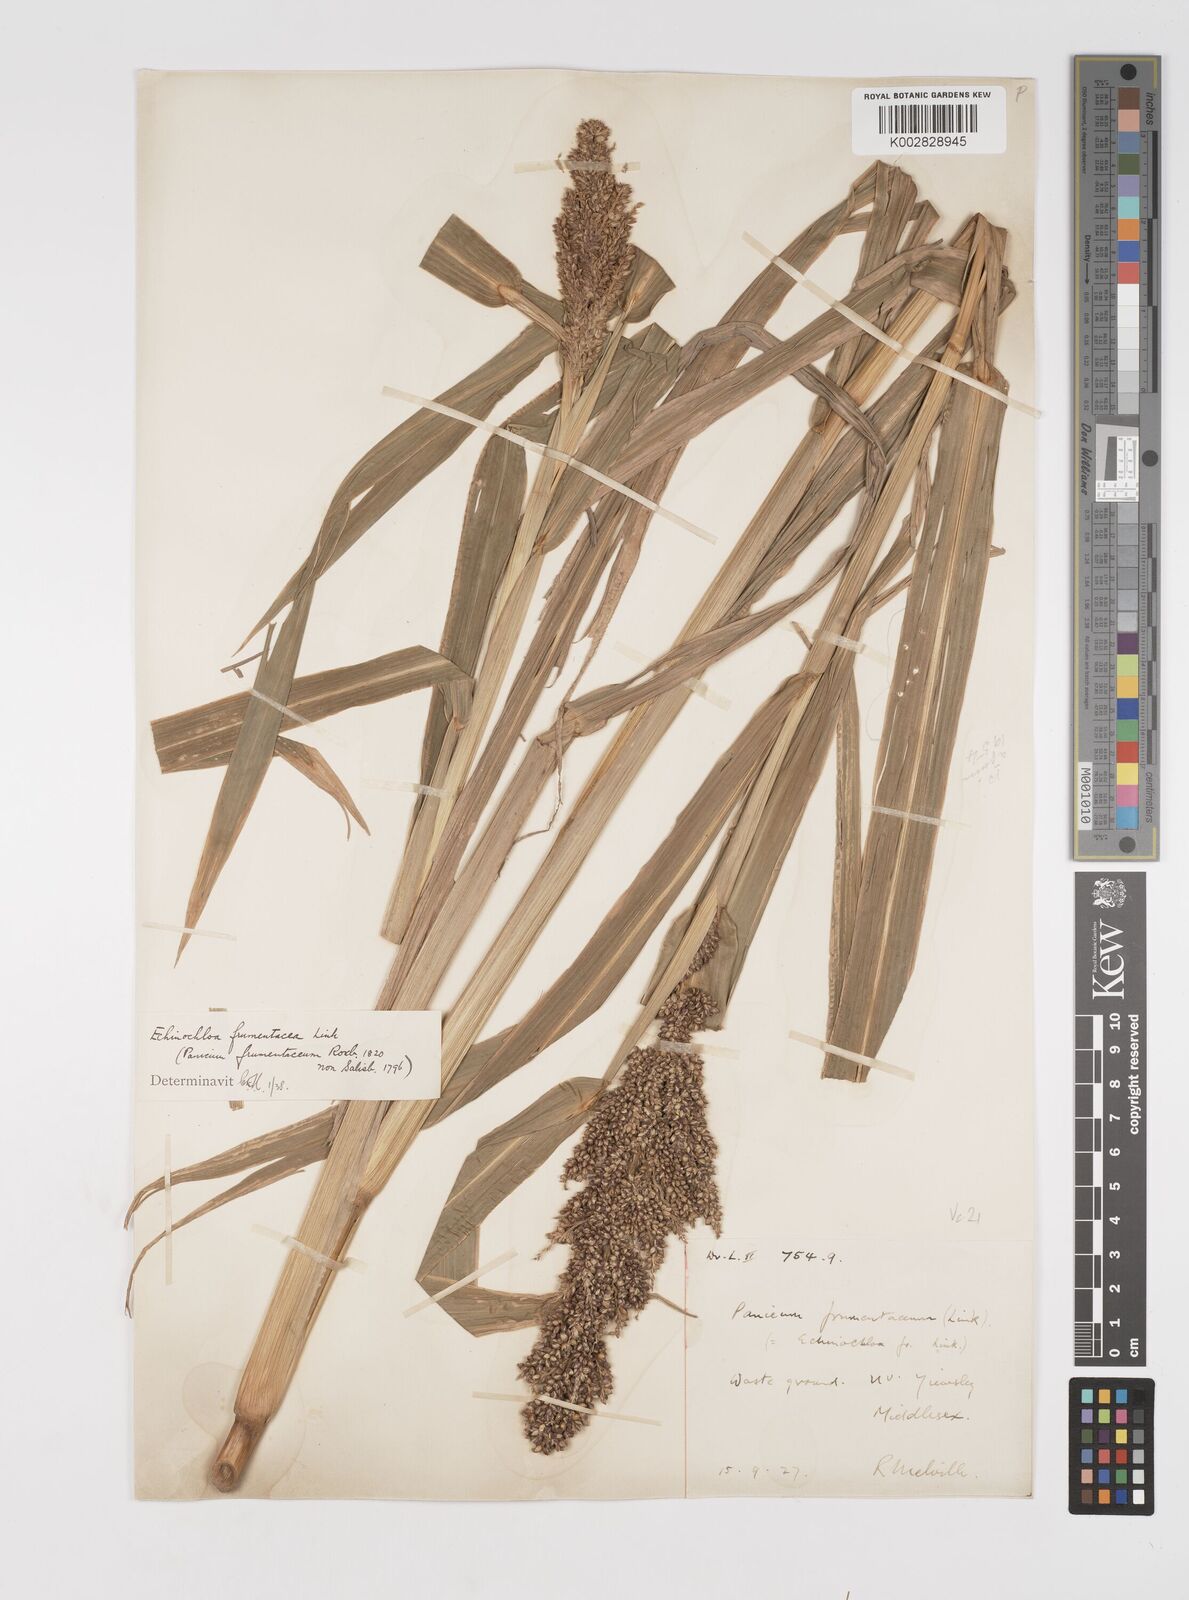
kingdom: Plantae
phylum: Tracheophyta
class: Liliopsida
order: Poales
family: Poaceae
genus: Echinochloa
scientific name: Echinochloa frumentacea
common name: Billion-dollar grass
